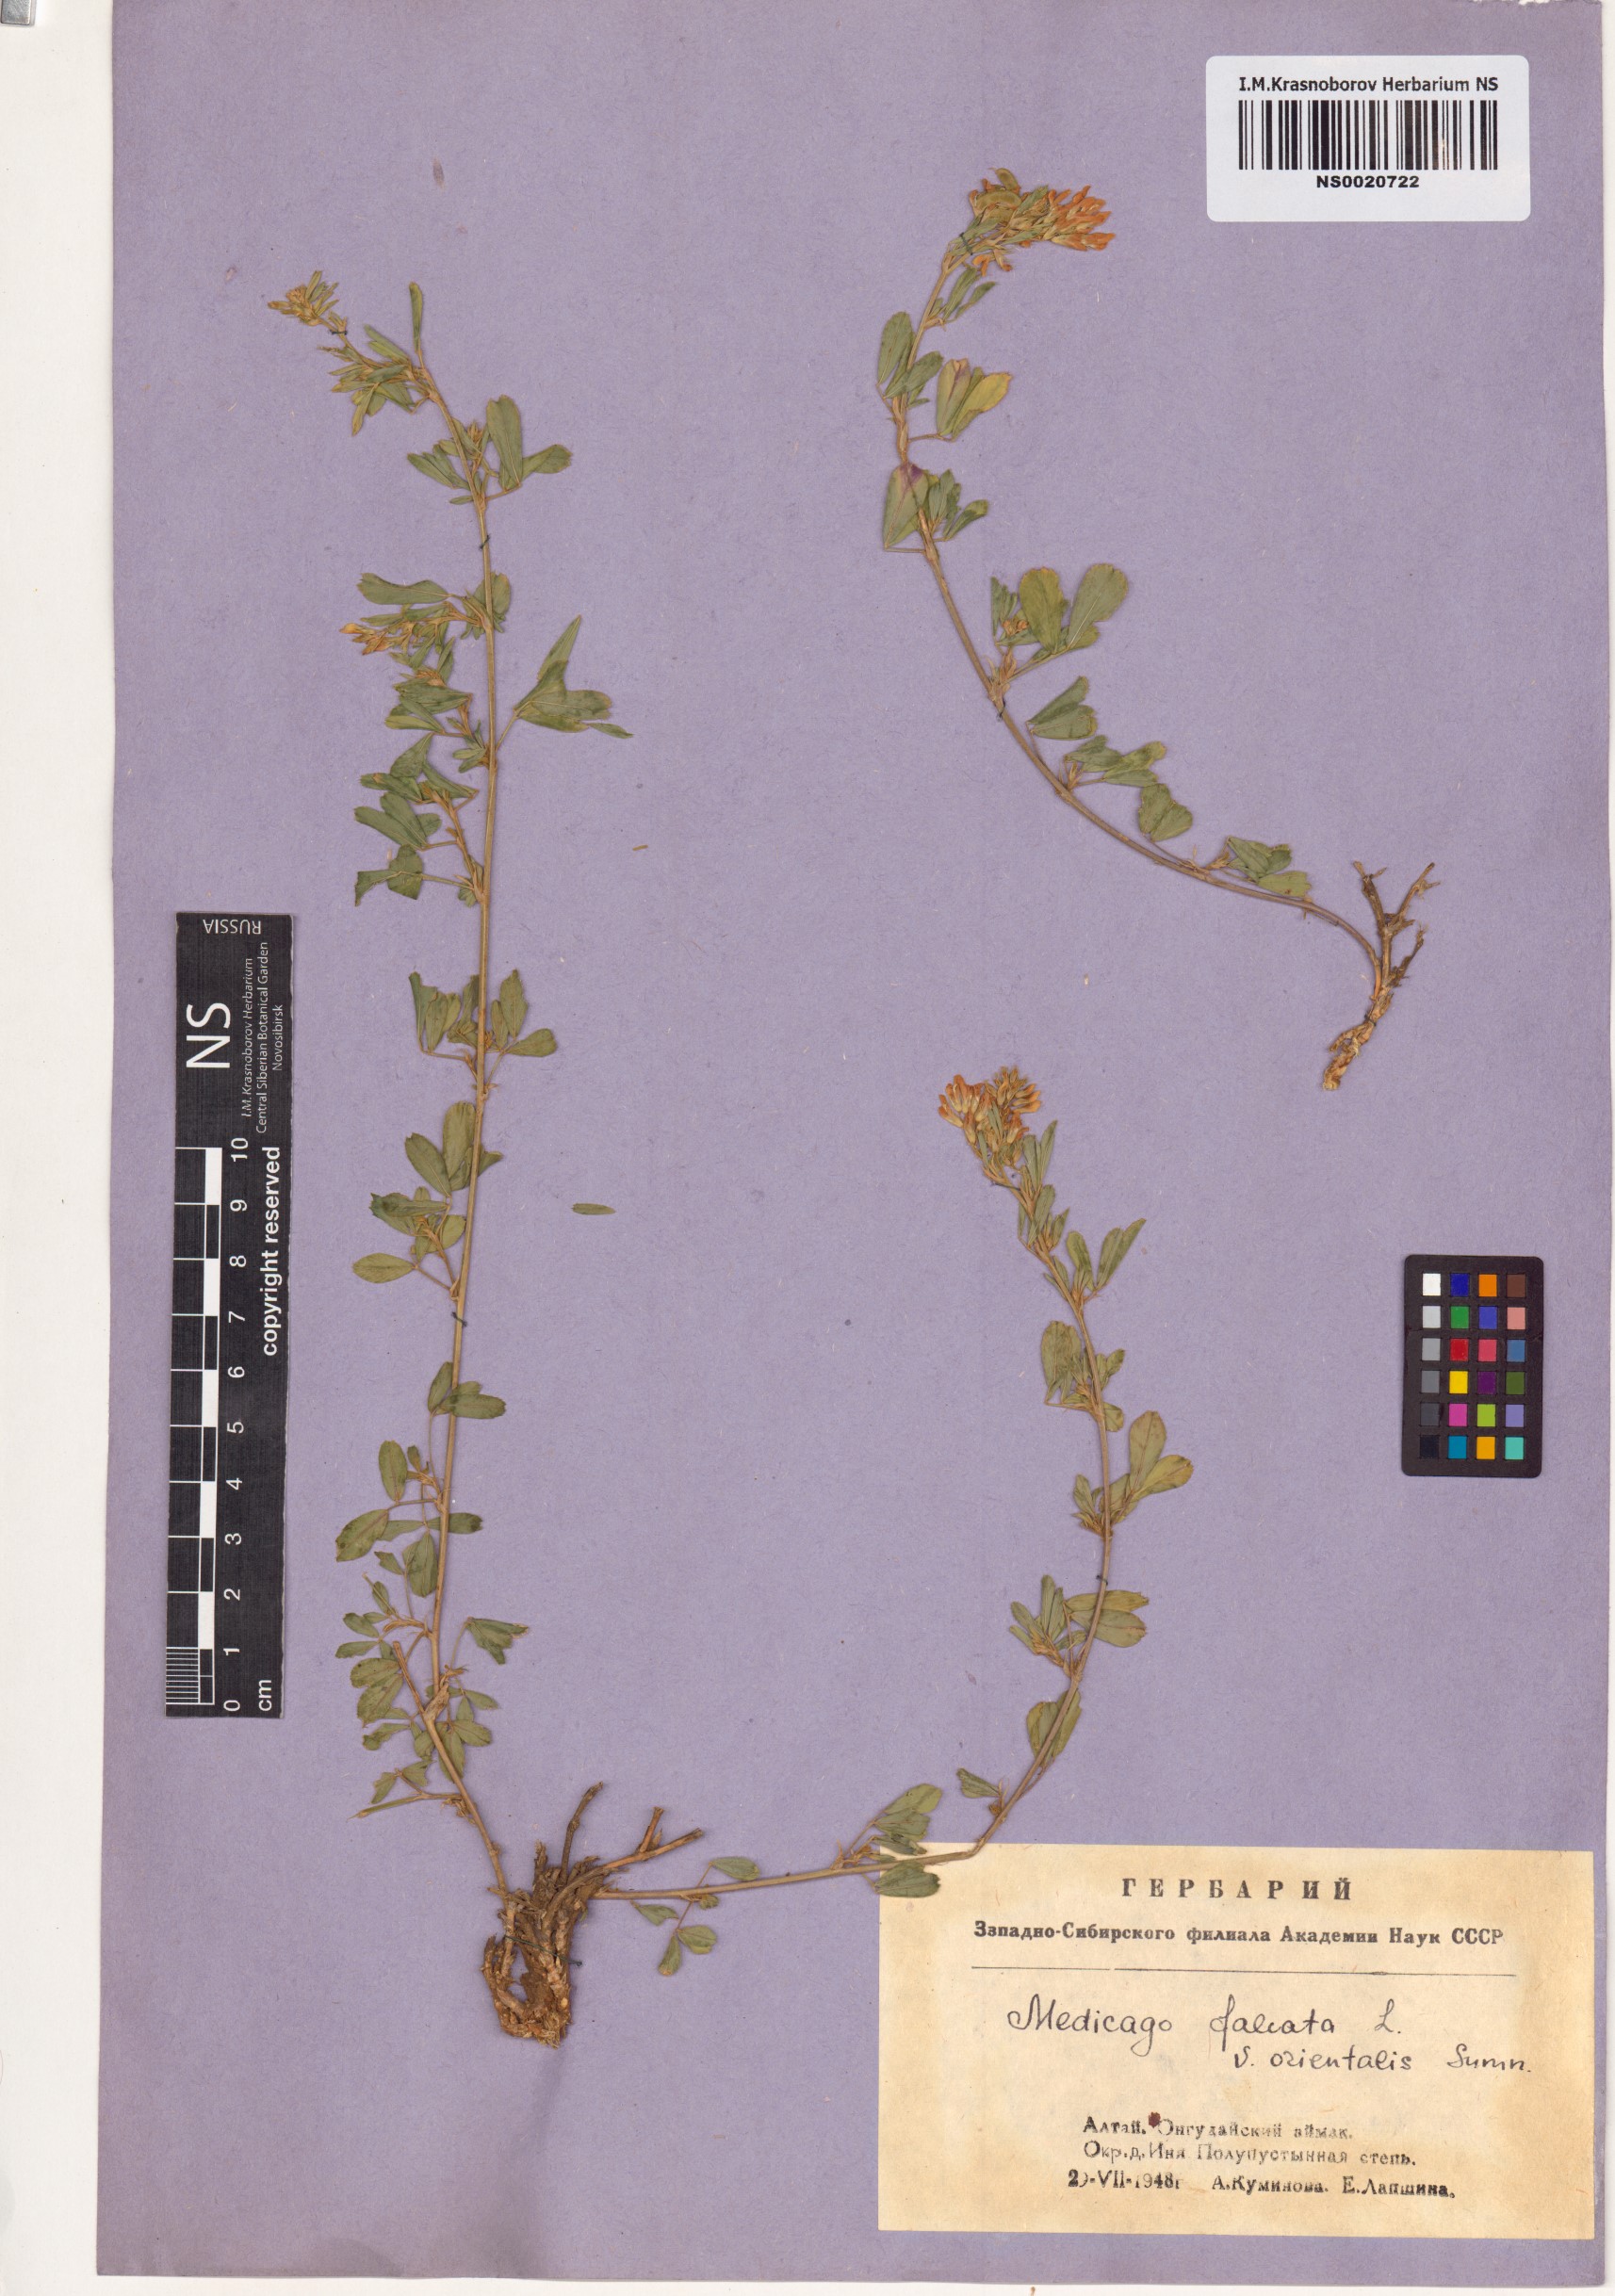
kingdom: Plantae
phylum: Tracheophyta
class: Magnoliopsida
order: Fabales
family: Fabaceae
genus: Medicago
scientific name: Medicago falcata
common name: Sickle medick
